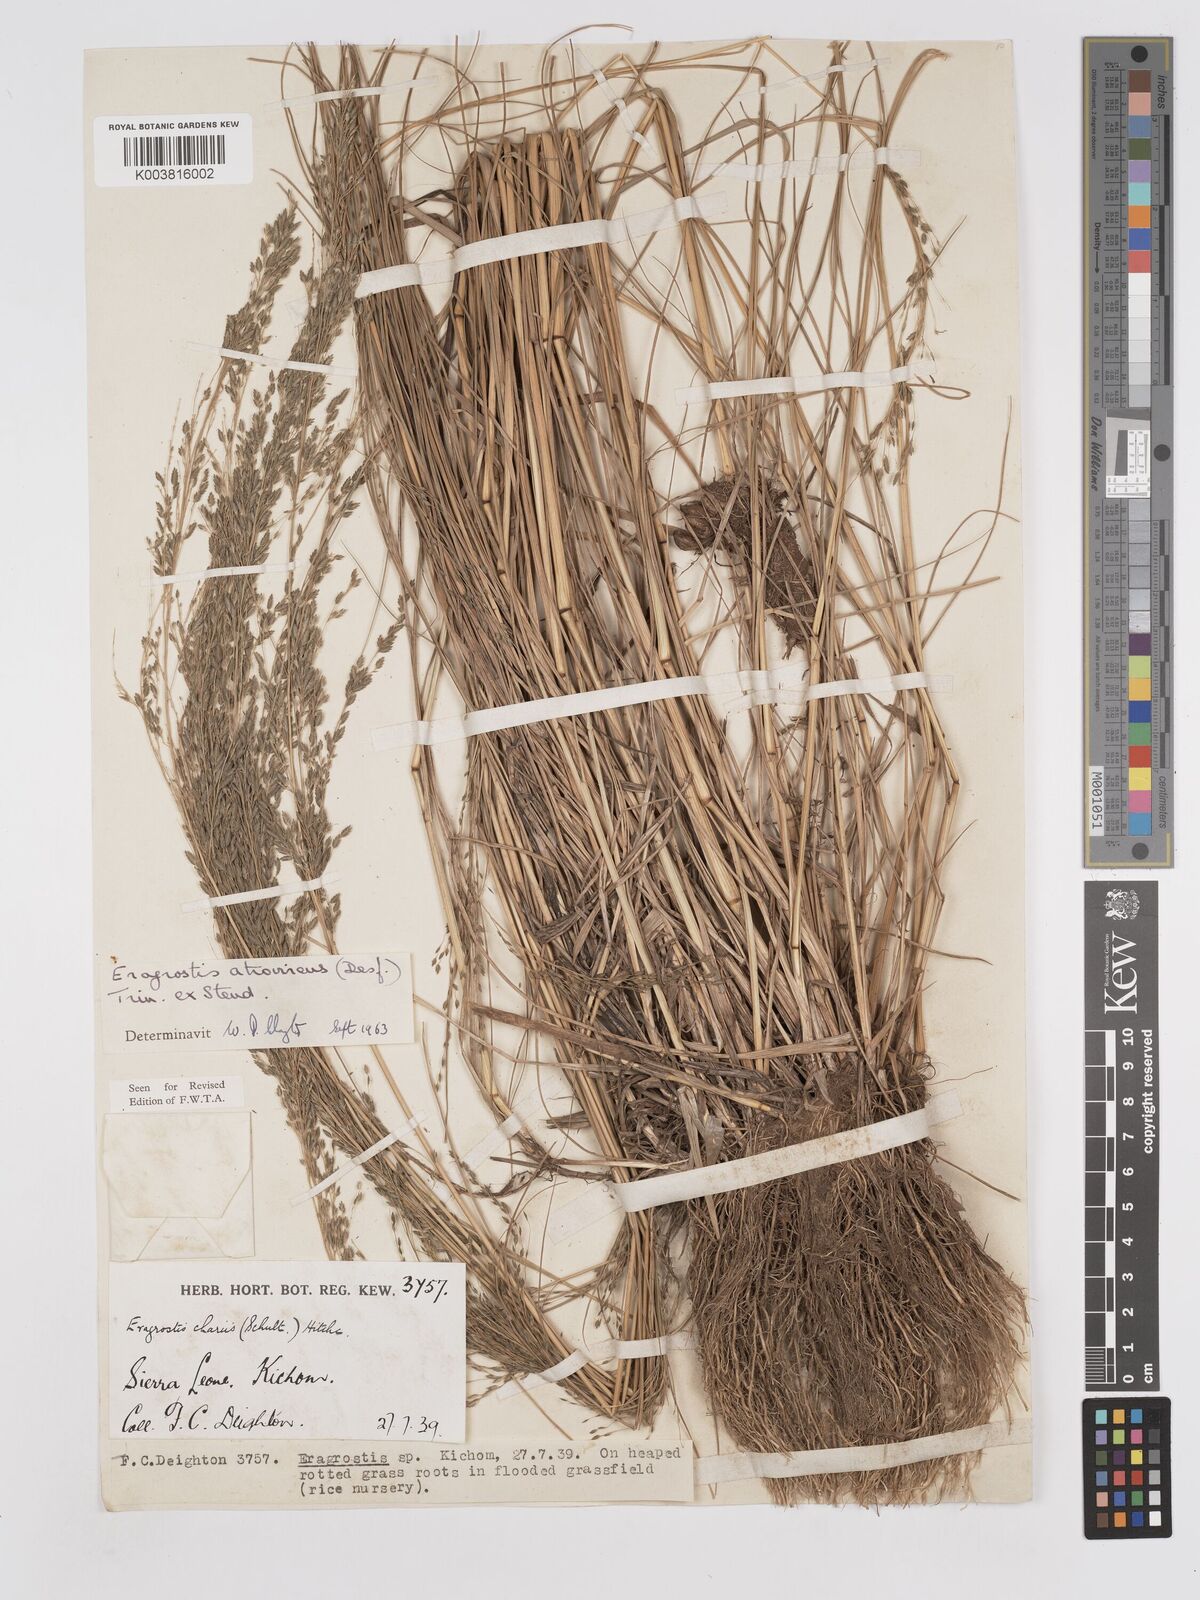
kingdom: Plantae
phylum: Tracheophyta
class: Liliopsida
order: Poales
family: Poaceae
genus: Eragrostis
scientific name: Eragrostis atrovirens
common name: Thalia lovegrass
